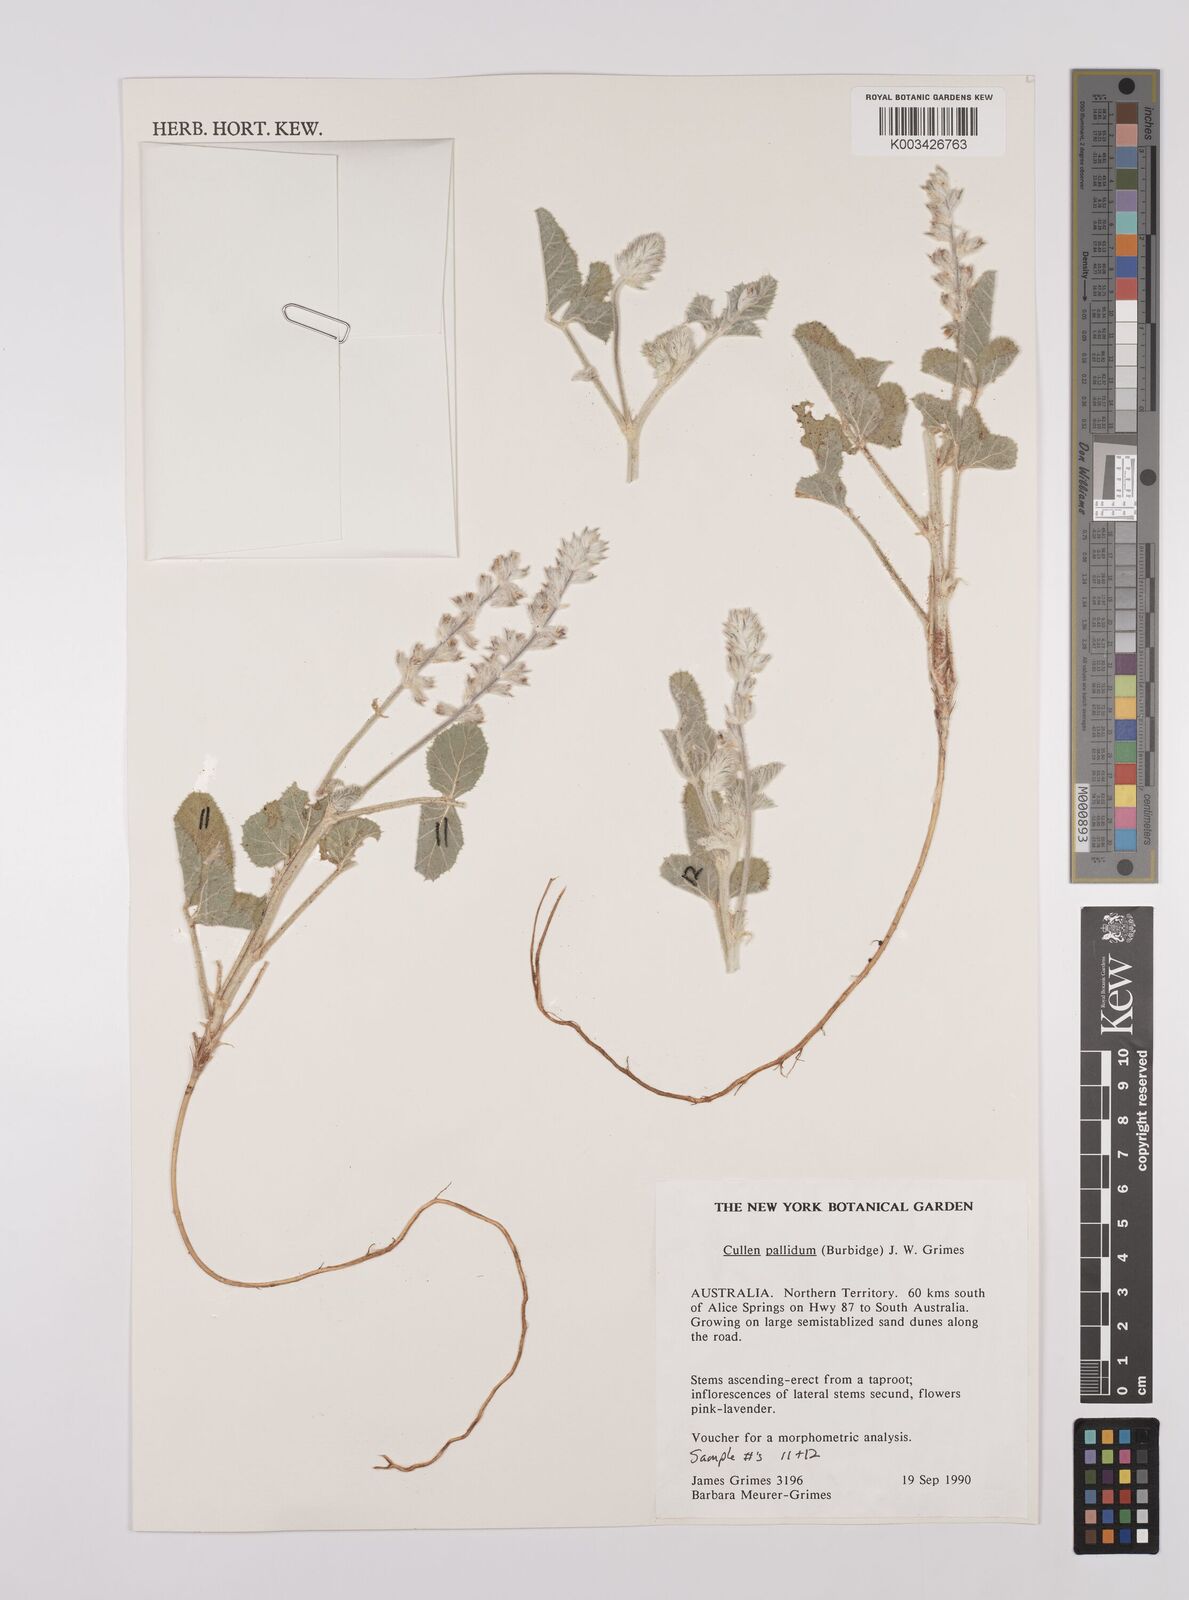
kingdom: Plantae
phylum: Tracheophyta
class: Magnoliopsida
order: Fabales
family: Fabaceae
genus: Cullen
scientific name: Cullen pallidum
